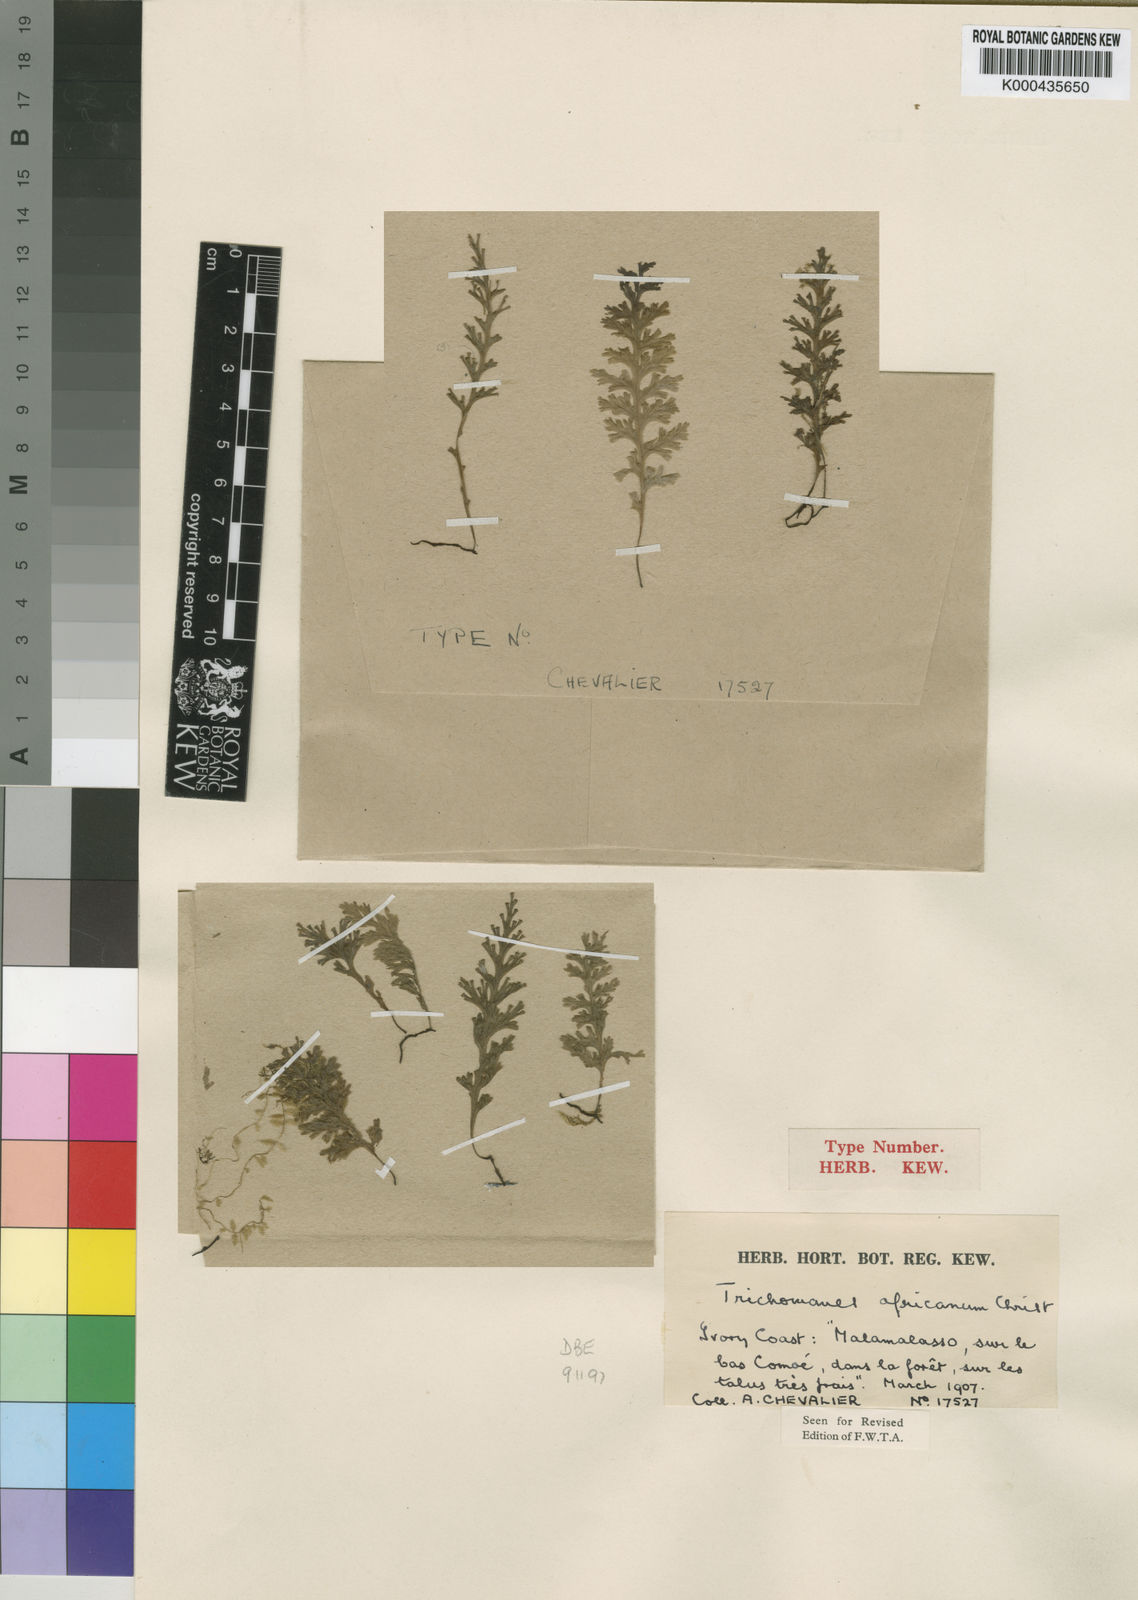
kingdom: Plantae
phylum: Tracheophyta
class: Polypodiopsida
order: Hymenophyllales
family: Hymenophyllaceae
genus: Polyphlebium
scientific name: Polyphlebium pyxidiferum
